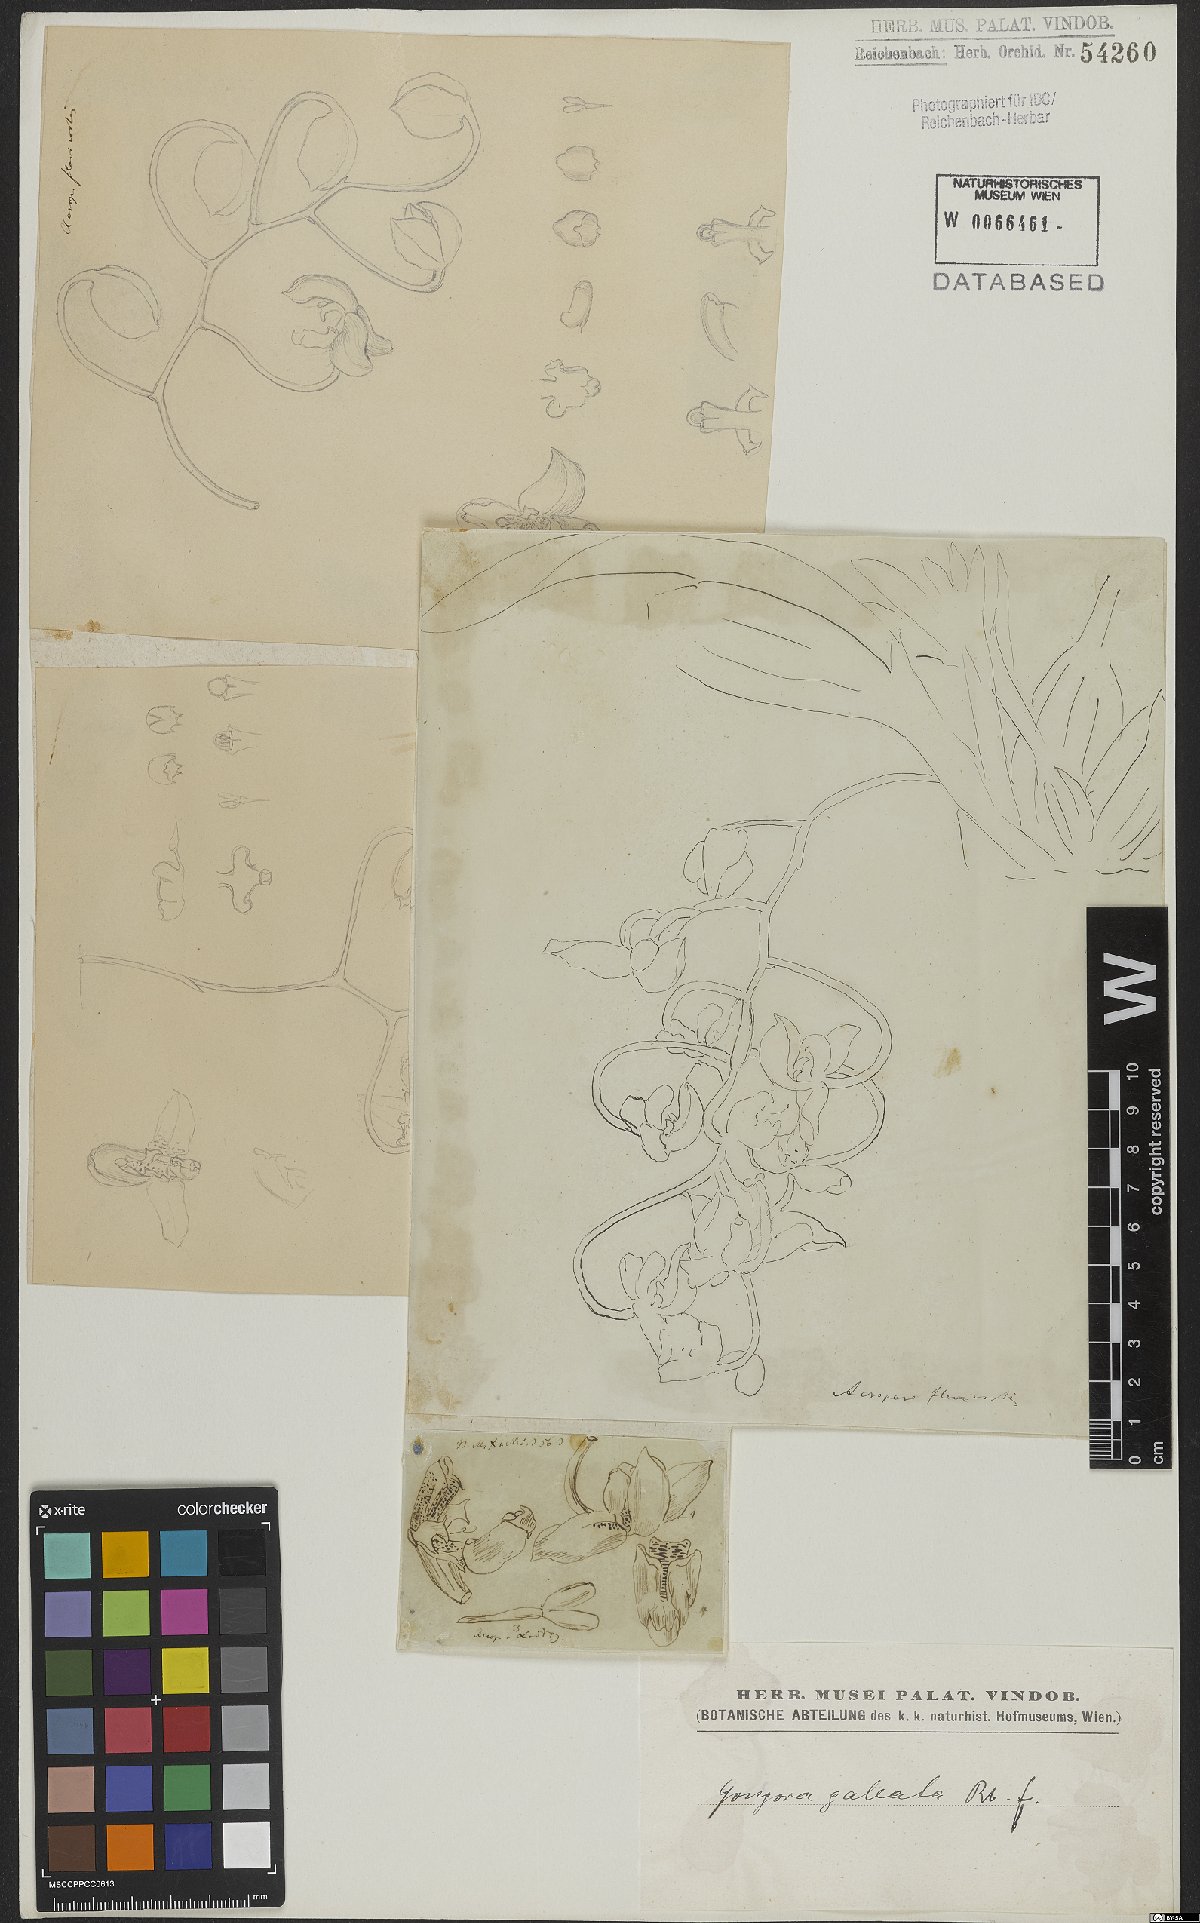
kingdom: Plantae
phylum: Tracheophyta
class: Liliopsida
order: Asparagales
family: Orchidaceae
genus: Gongora
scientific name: Gongora galeata
